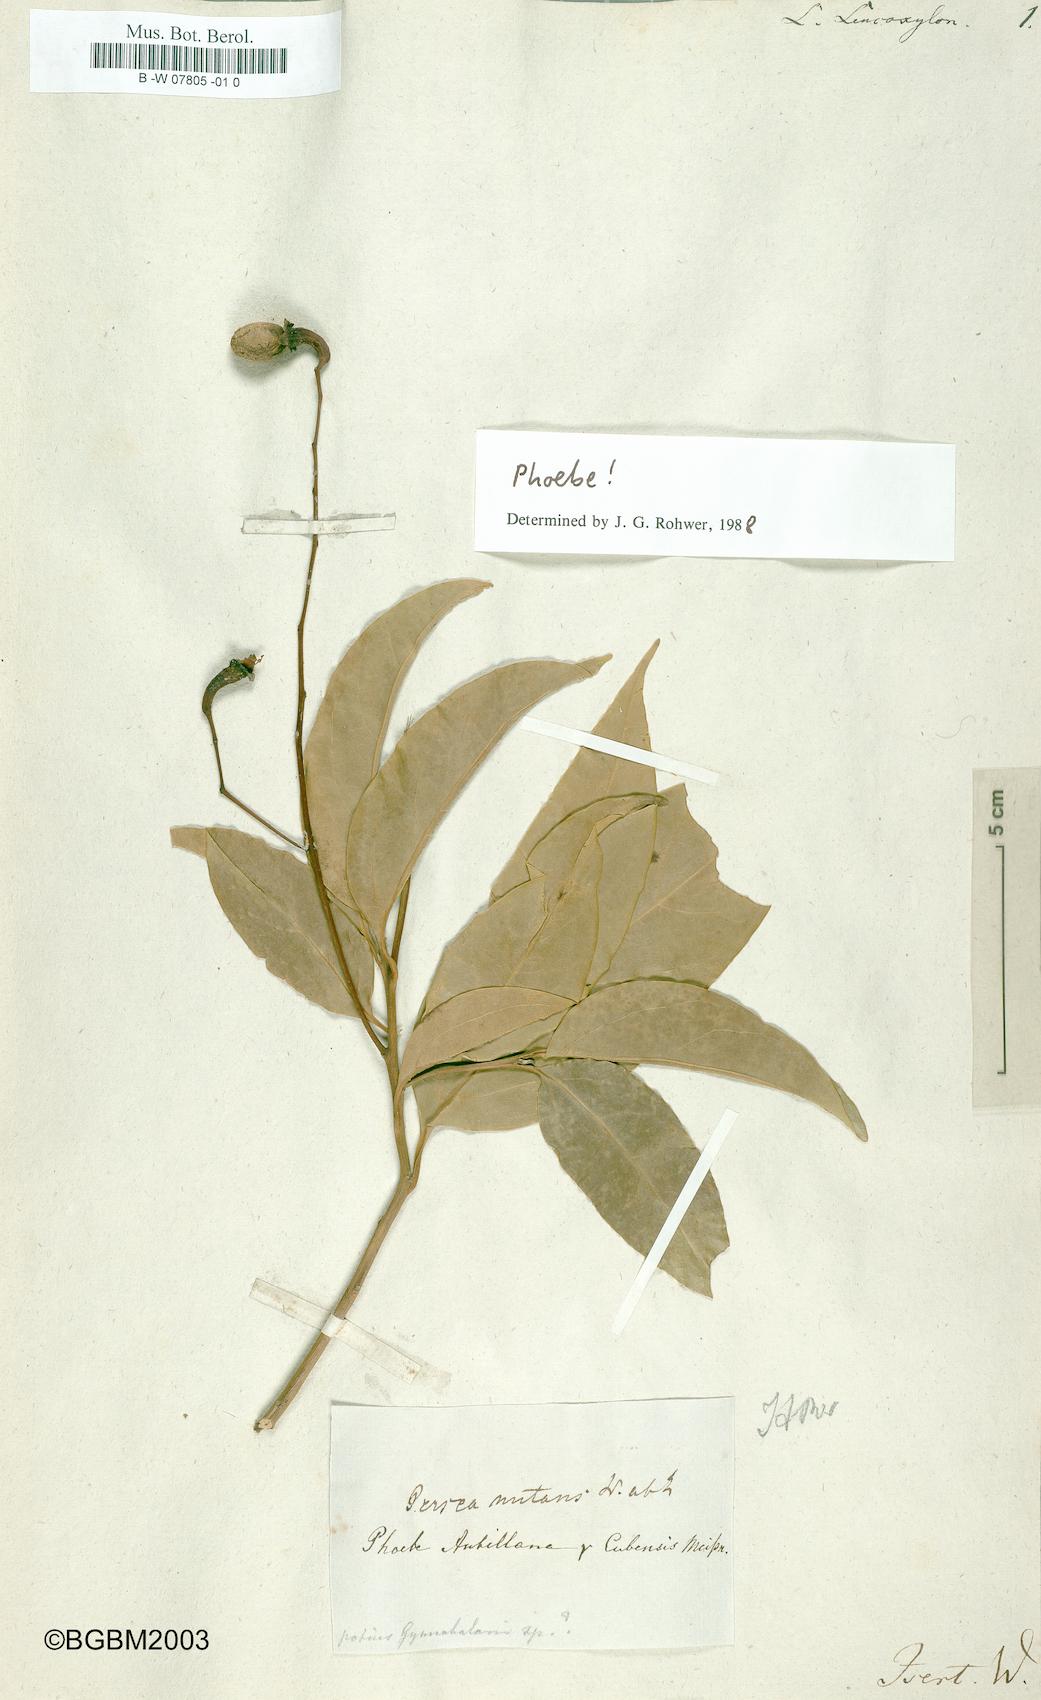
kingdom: Plantae
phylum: Tracheophyta
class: Magnoliopsida
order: Laurales
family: Lauraceae
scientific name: Lauraceae
